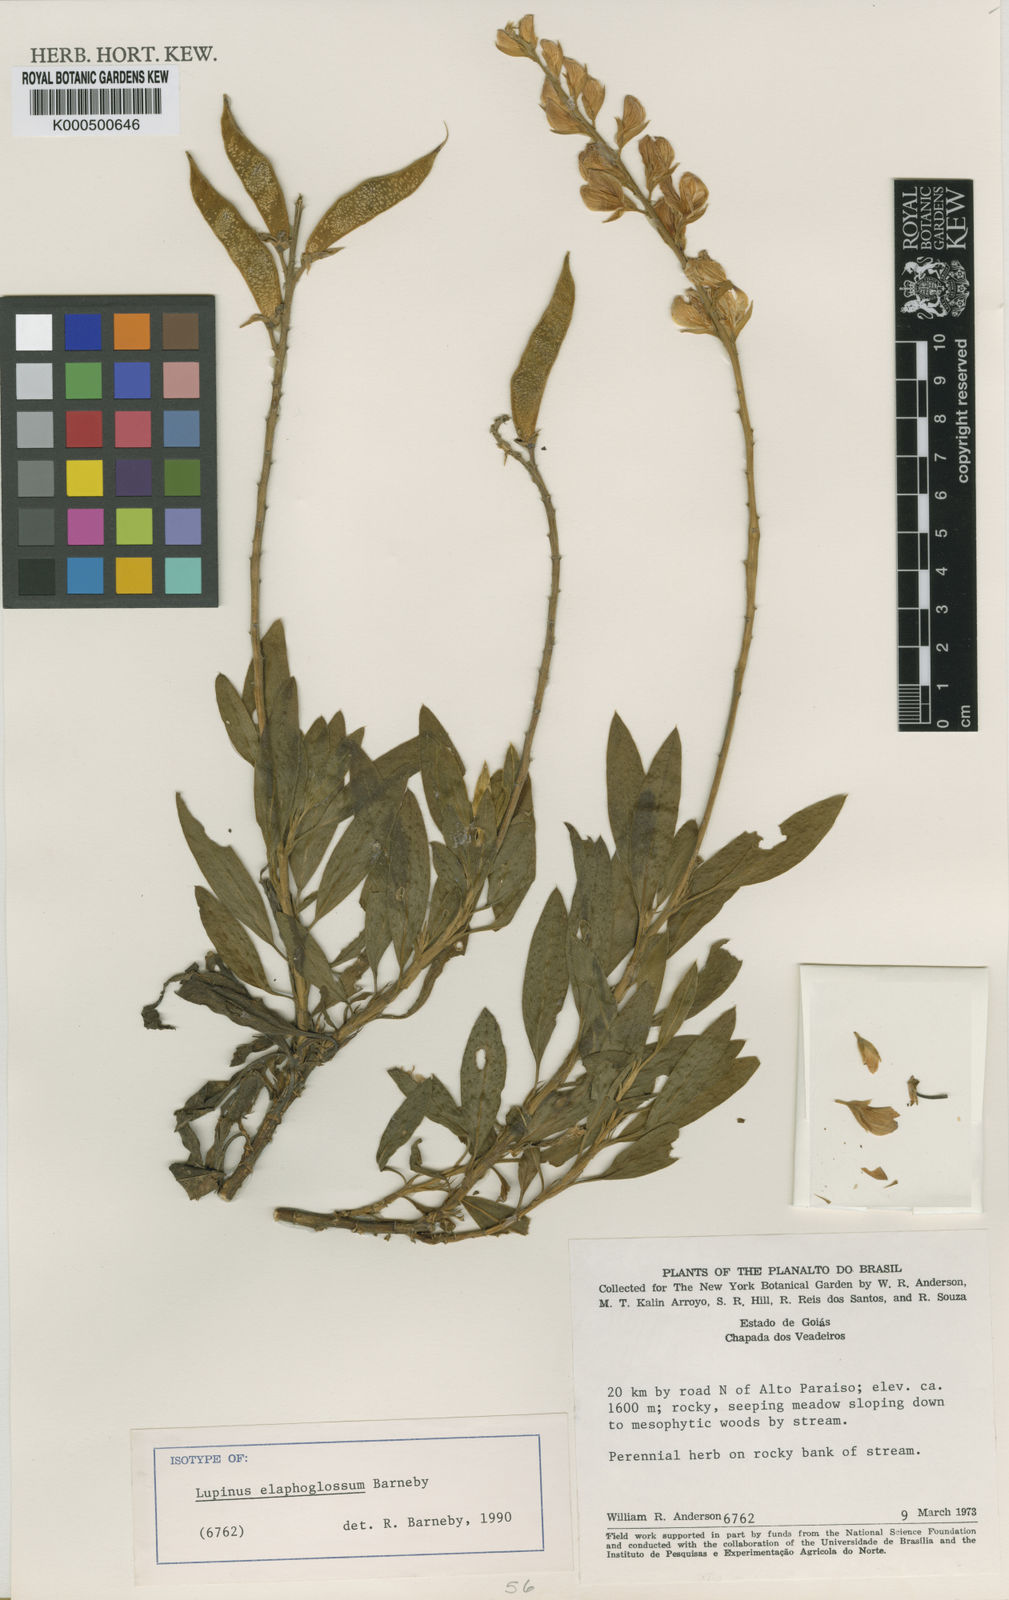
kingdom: Plantae
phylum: Tracheophyta
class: Magnoliopsida
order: Fabales
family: Fabaceae
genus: Lupinus
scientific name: Lupinus elaphoglossum
